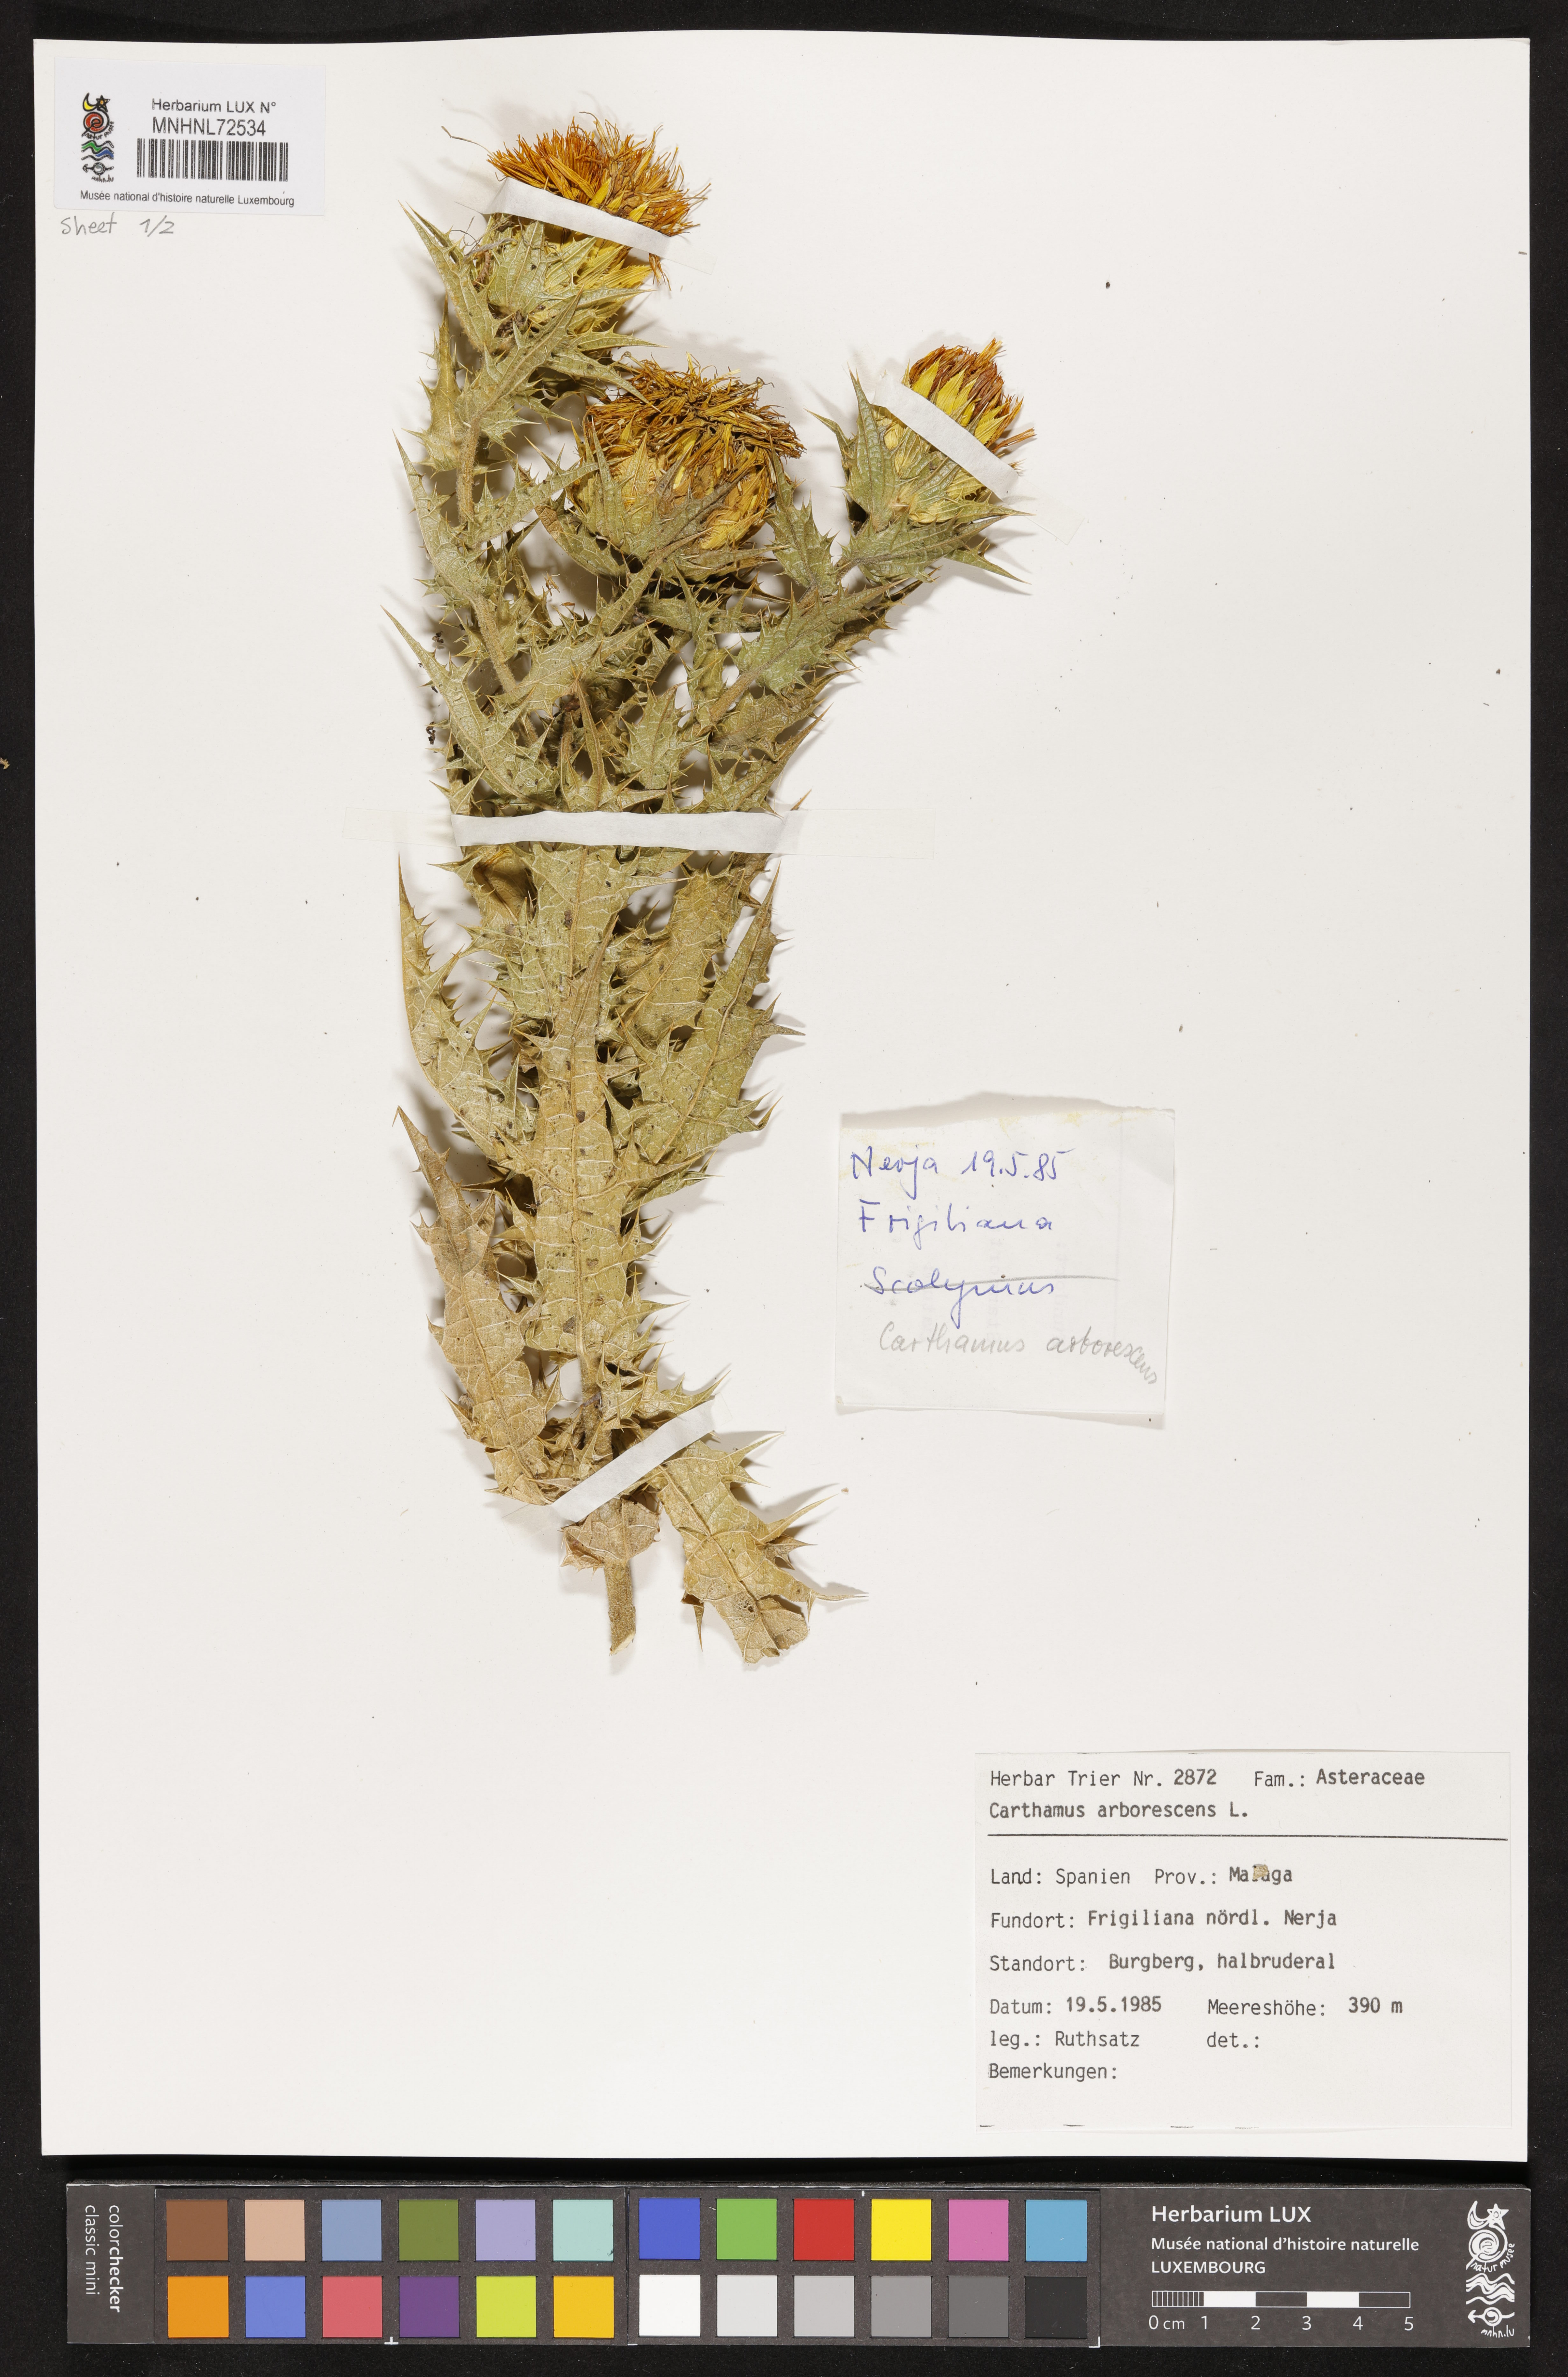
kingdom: Plantae
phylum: Tracheophyta
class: Magnoliopsida
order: Asterales
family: Asteraceae
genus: Phonus
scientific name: Phonus arborescens
